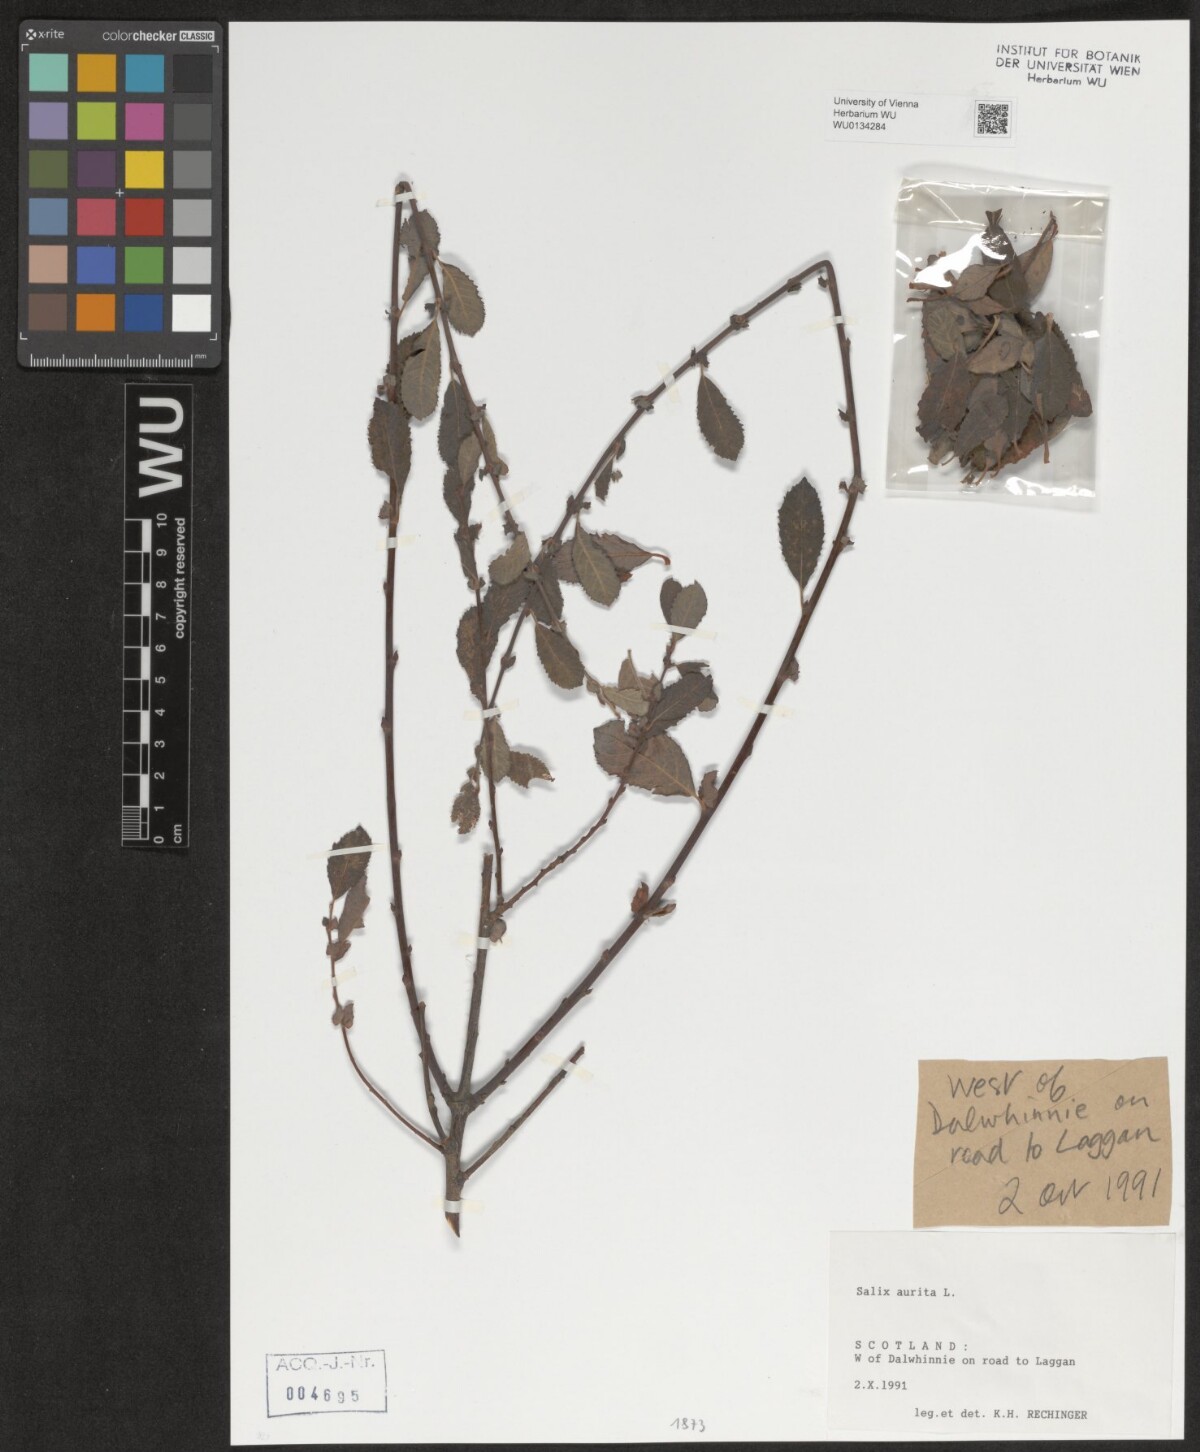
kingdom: Plantae
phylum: Tracheophyta
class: Magnoliopsida
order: Malpighiales
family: Salicaceae
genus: Salix
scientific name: Salix aurita
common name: Eared willow
